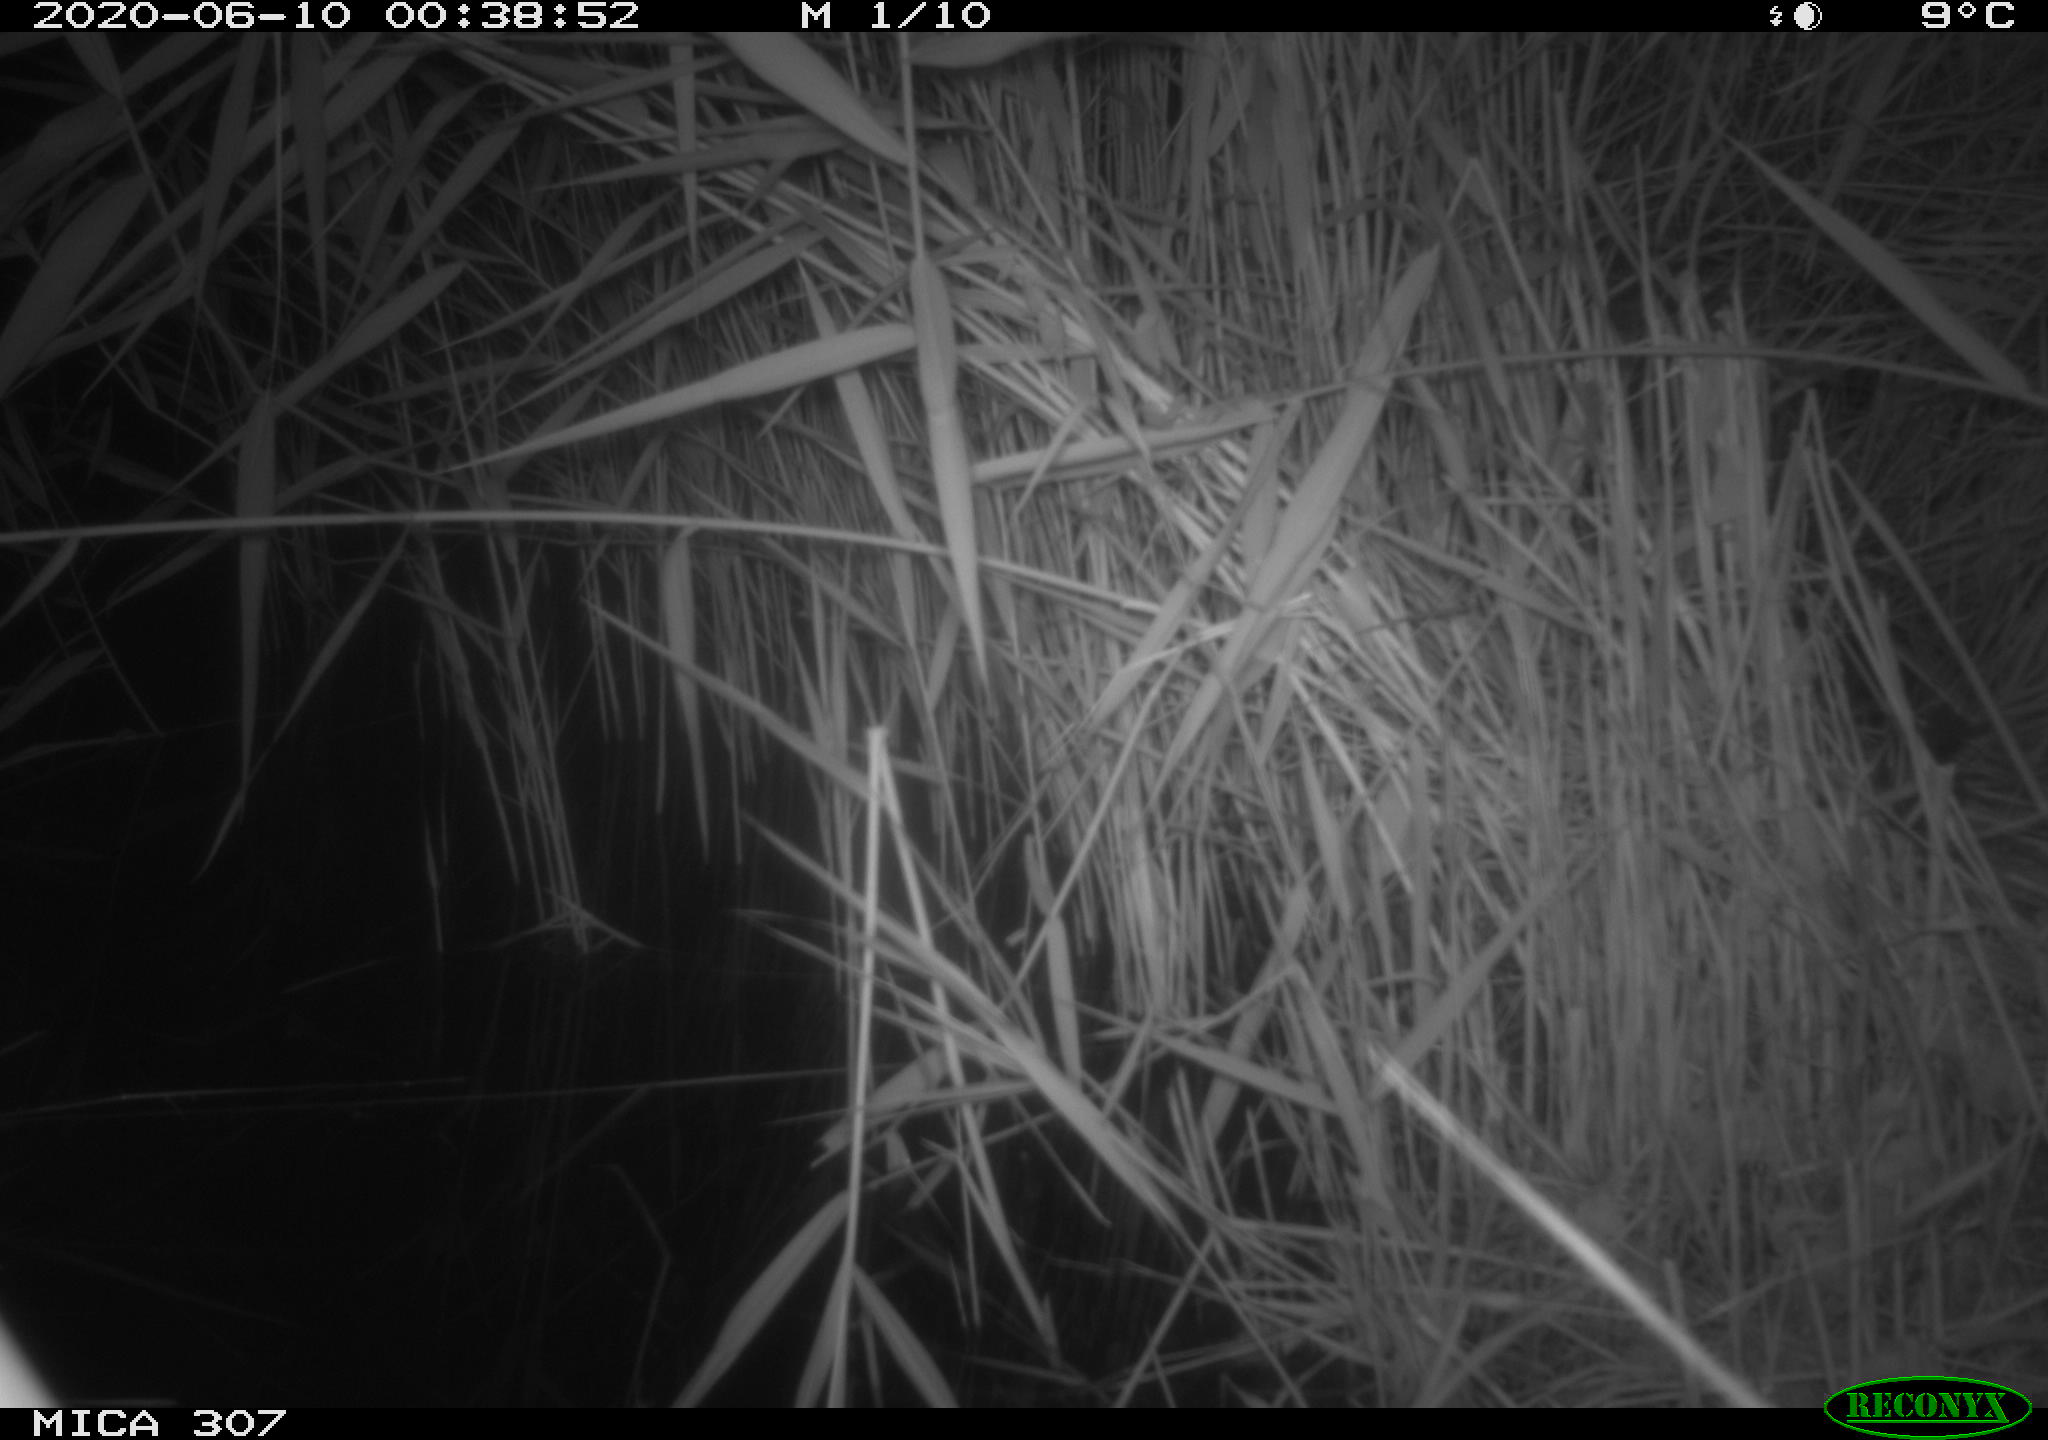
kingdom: Animalia
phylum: Chordata
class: Mammalia
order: Rodentia
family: Muridae
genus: Rattus
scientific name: Rattus norvegicus
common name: Brown rat
